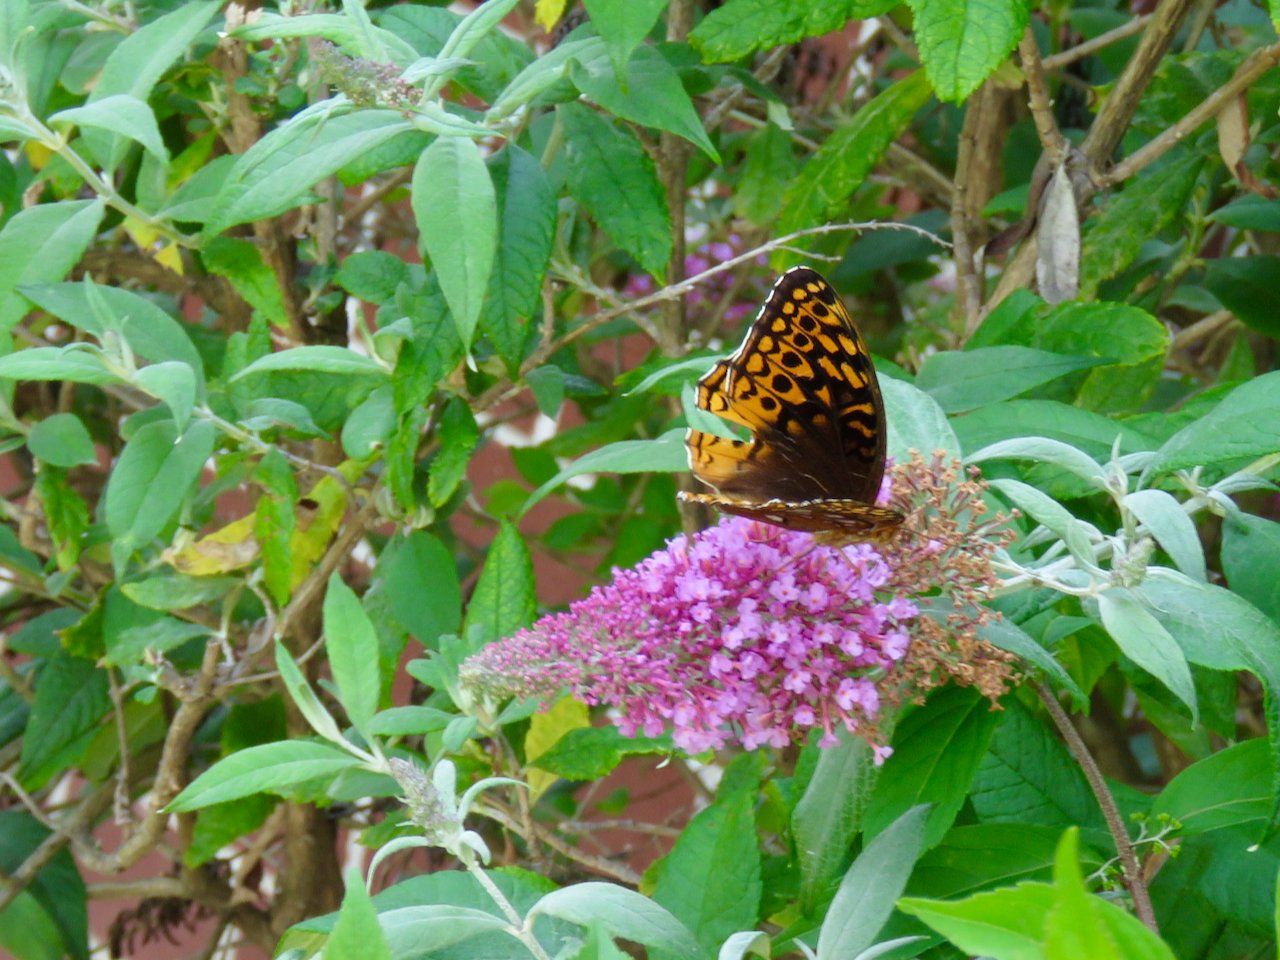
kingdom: Animalia
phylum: Arthropoda
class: Insecta
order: Lepidoptera
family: Nymphalidae
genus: Speyeria
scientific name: Speyeria cybele
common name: Great Spangled Fritillary
